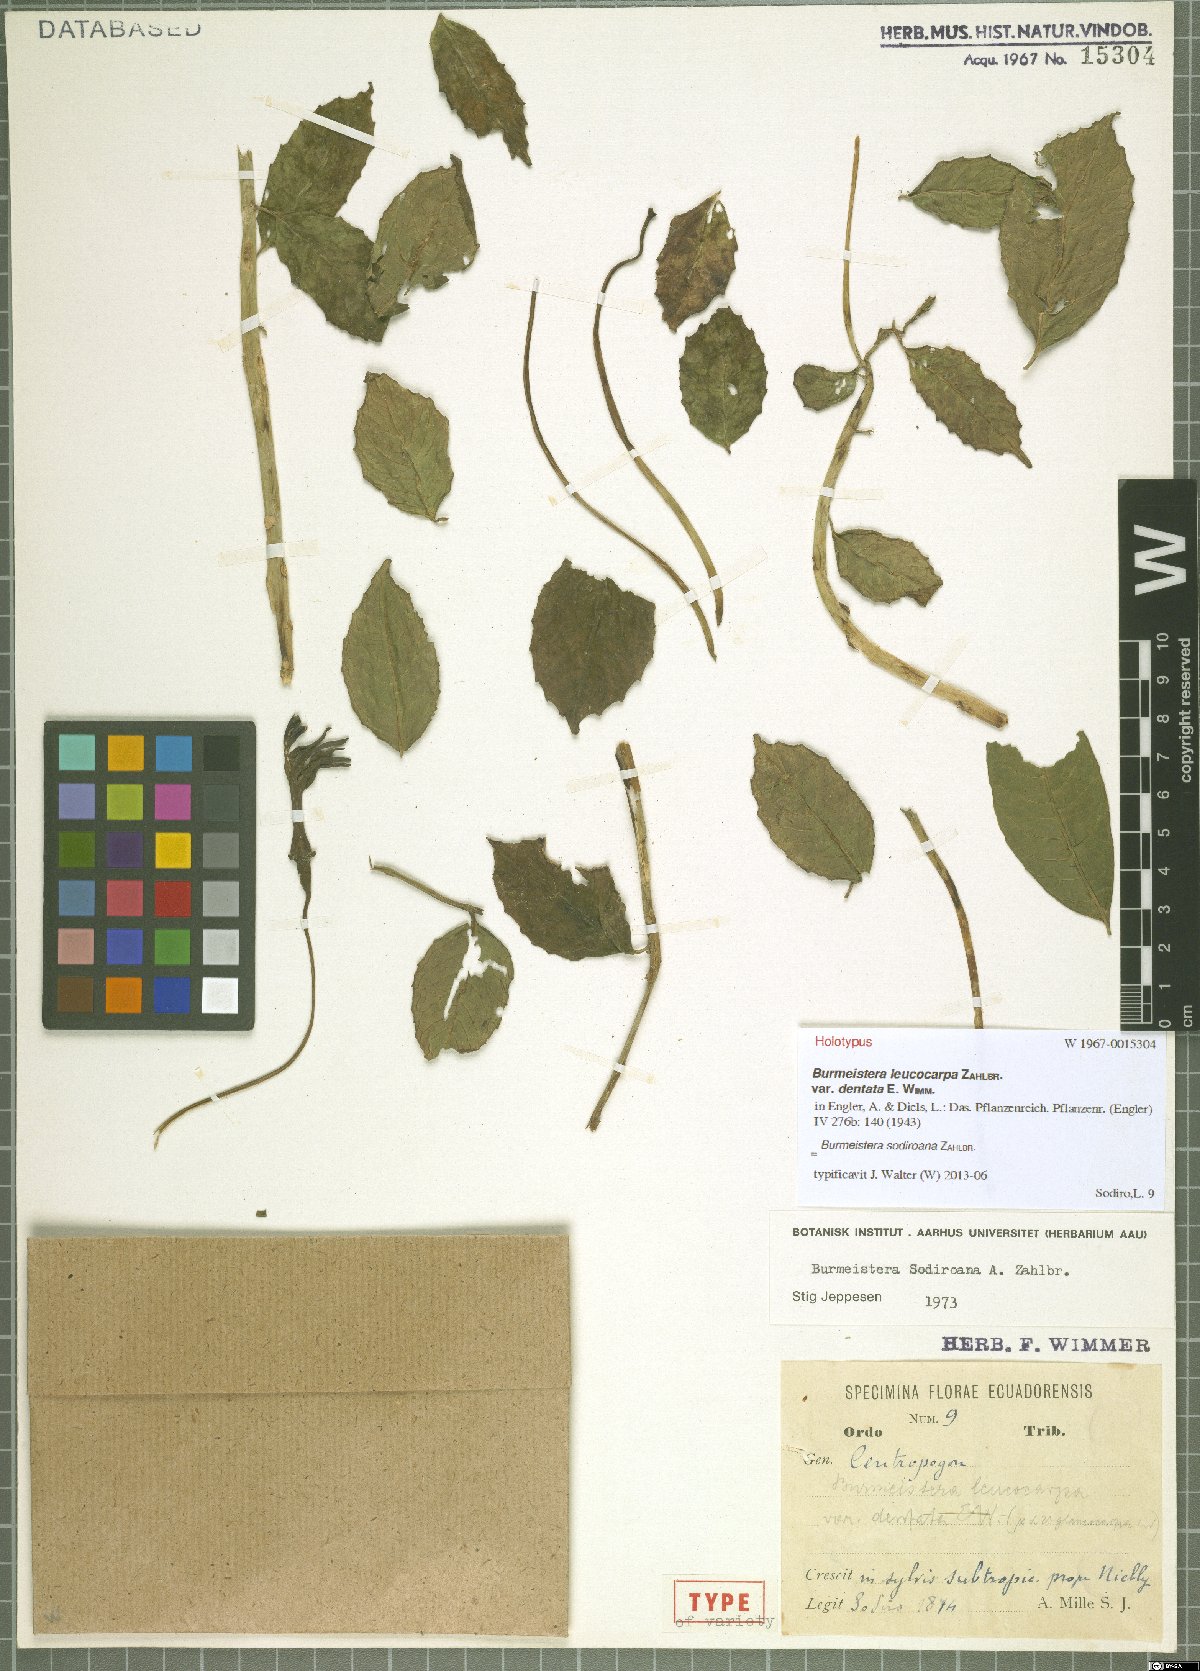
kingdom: Plantae
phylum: Tracheophyta
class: Magnoliopsida
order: Asterales
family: Campanulaceae
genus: Burmeistera
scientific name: Burmeistera sodiroana
